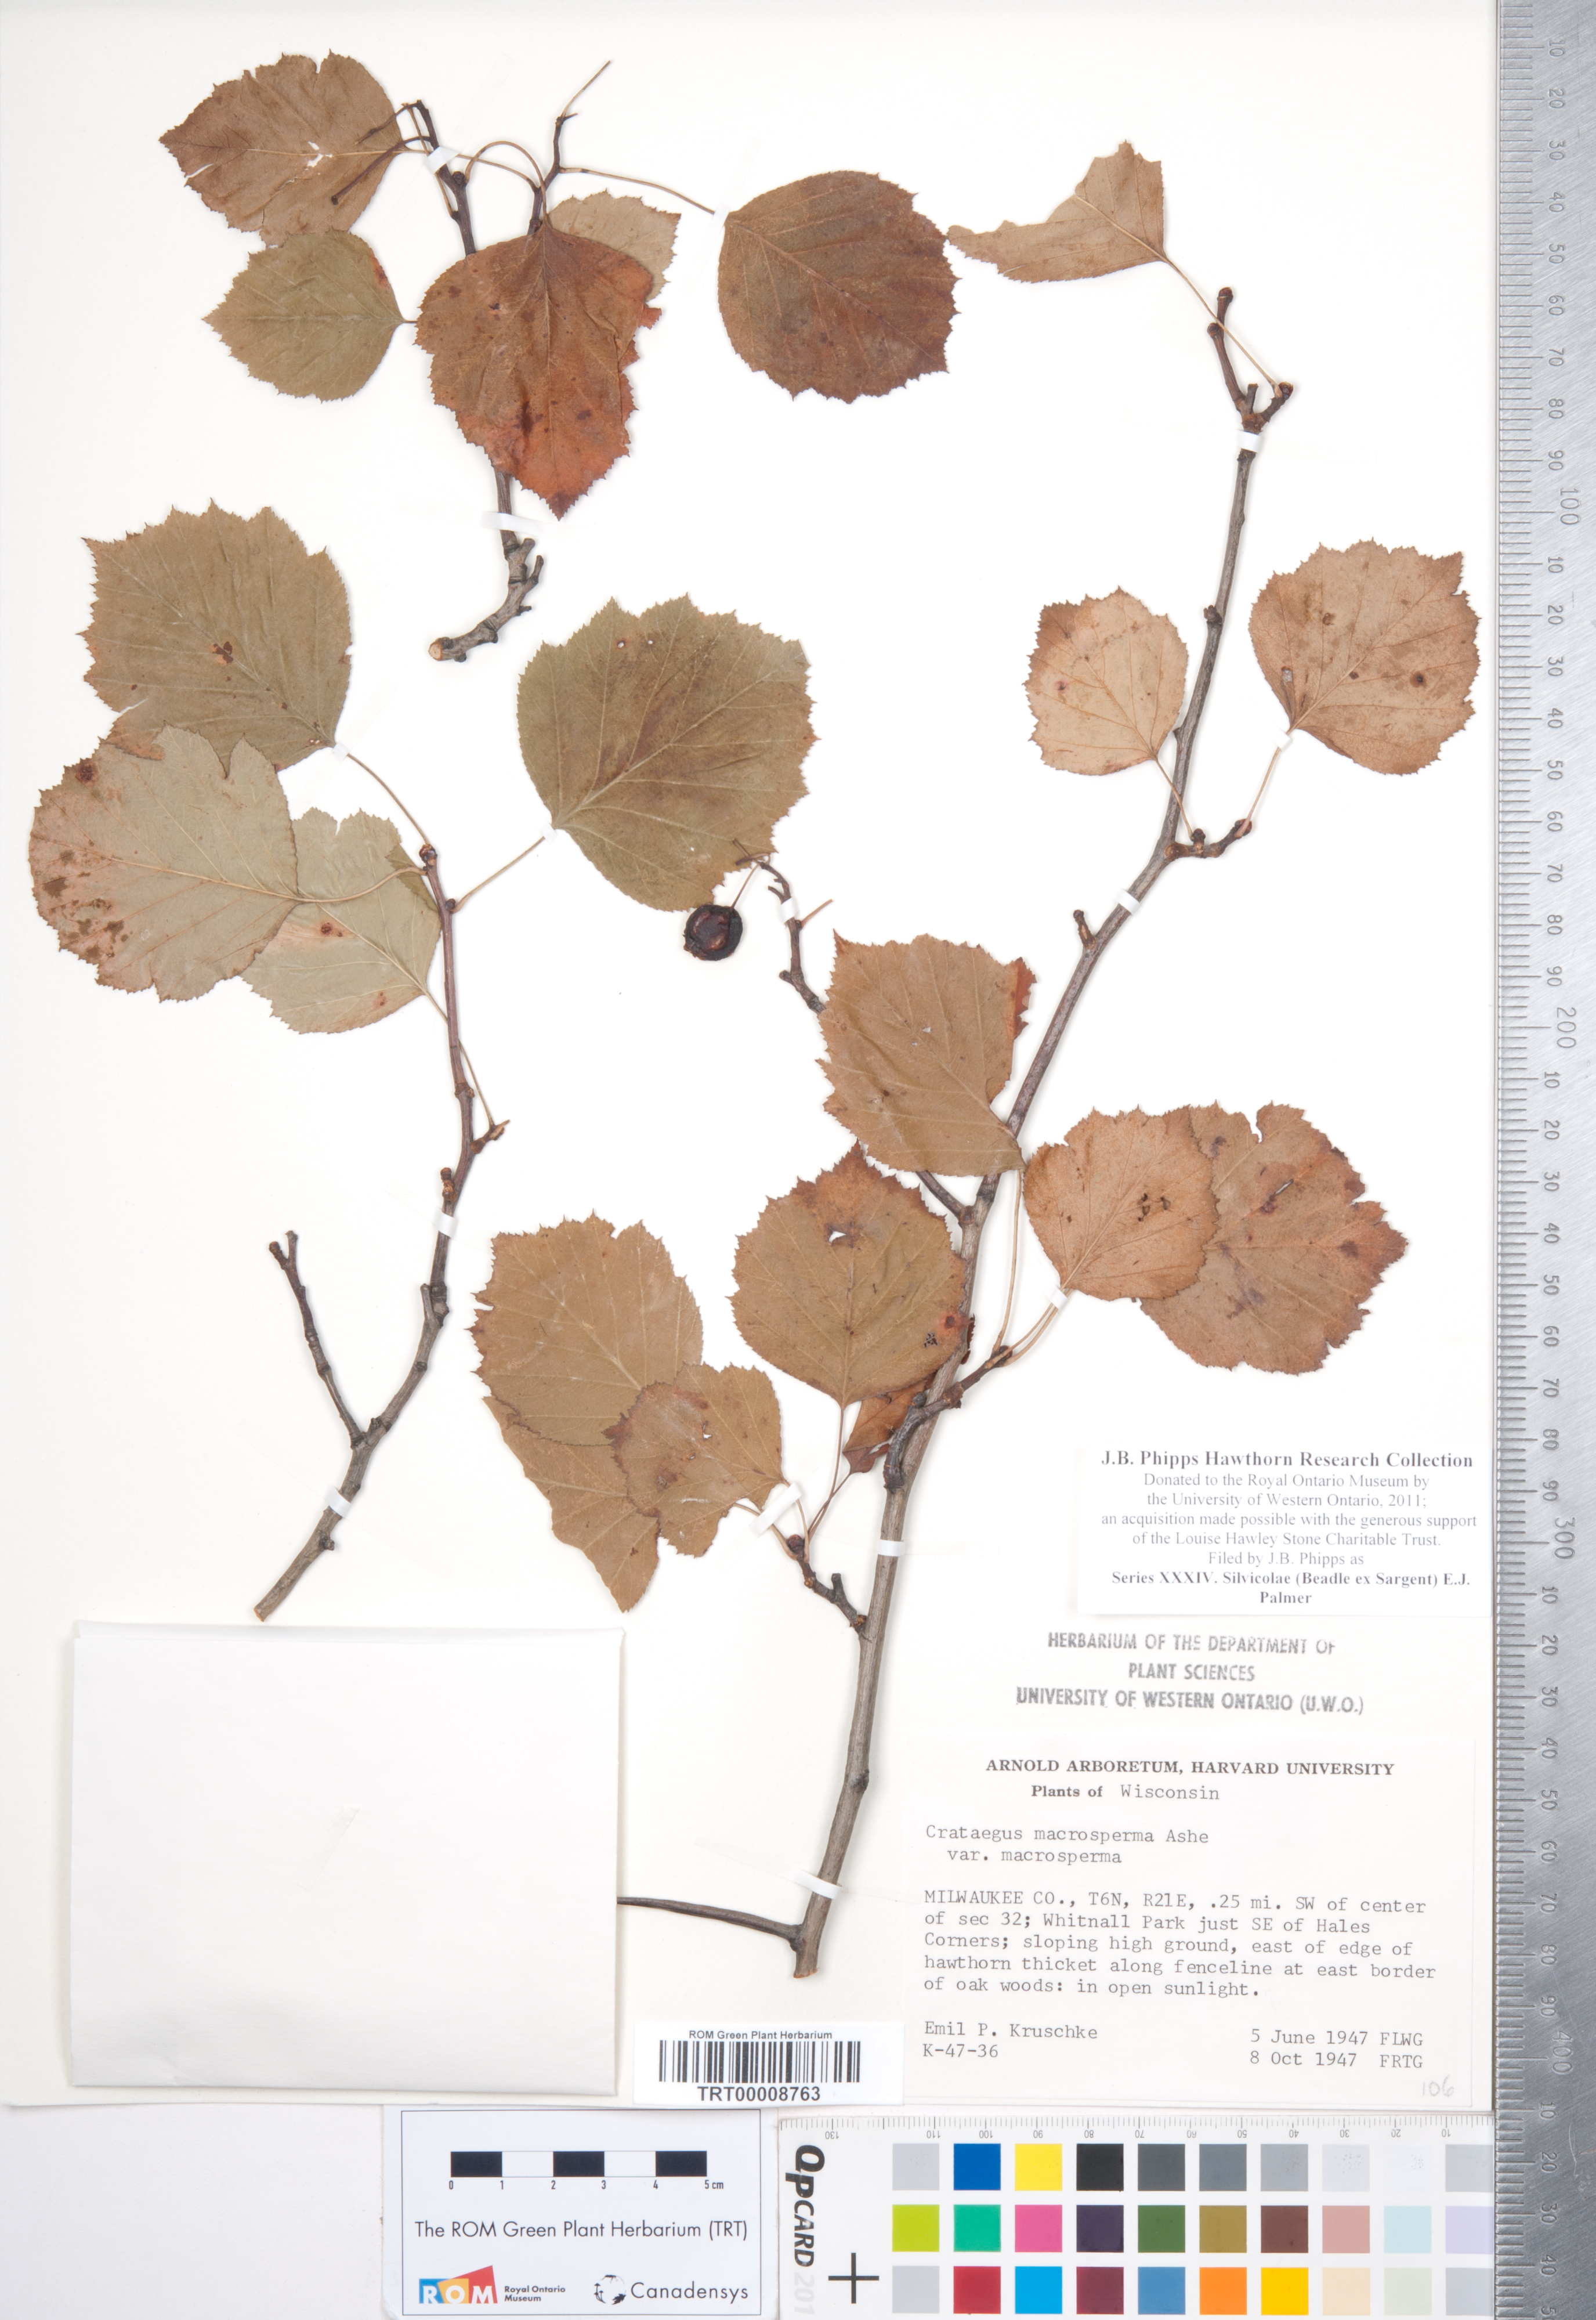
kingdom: Plantae
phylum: Tracheophyta
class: Magnoliopsida
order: Rosales
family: Rosaceae
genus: Crataegus
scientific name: Crataegus
